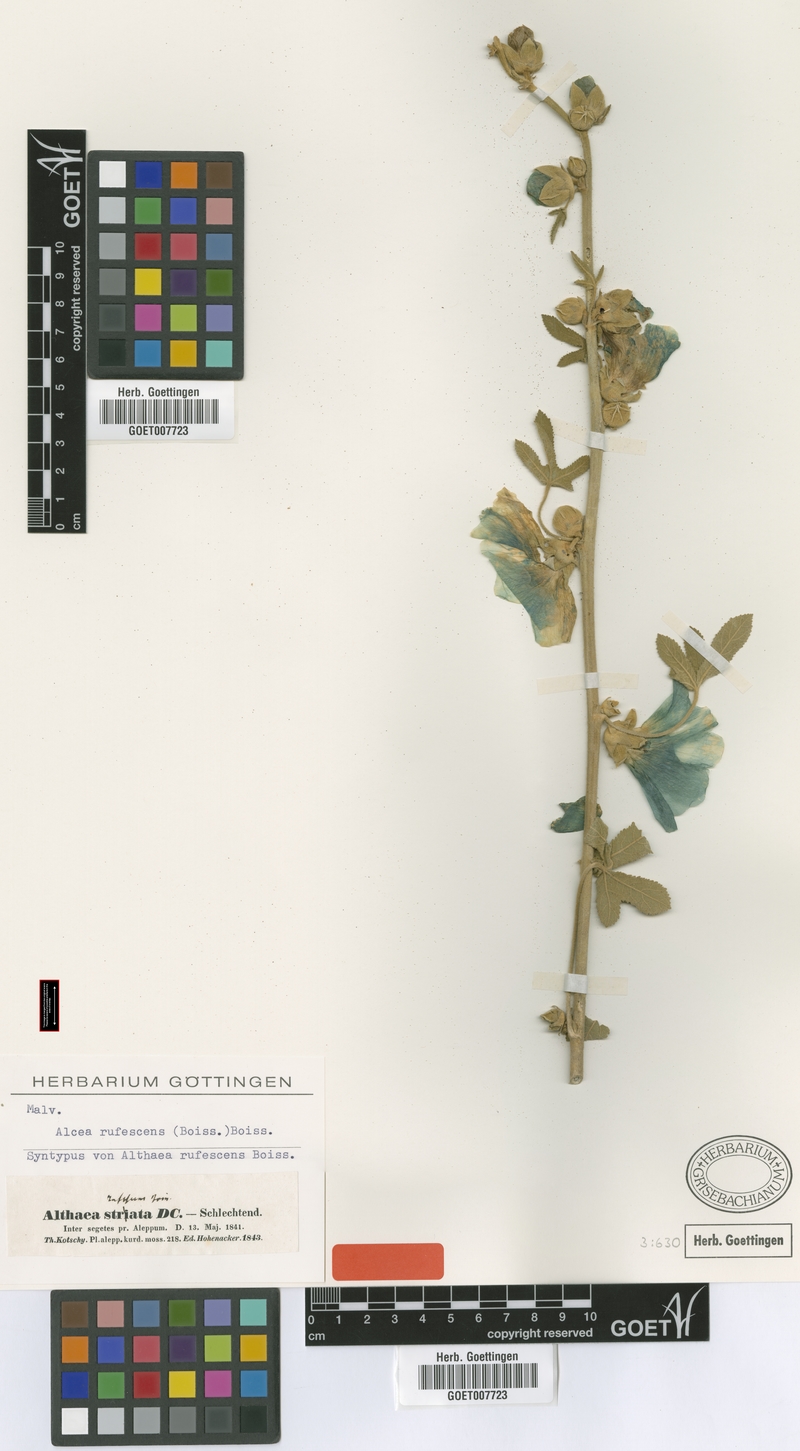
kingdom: Plantae
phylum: Tracheophyta
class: Magnoliopsida
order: Malvales
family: Malvaceae
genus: Alcea
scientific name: Alcea rufescens
